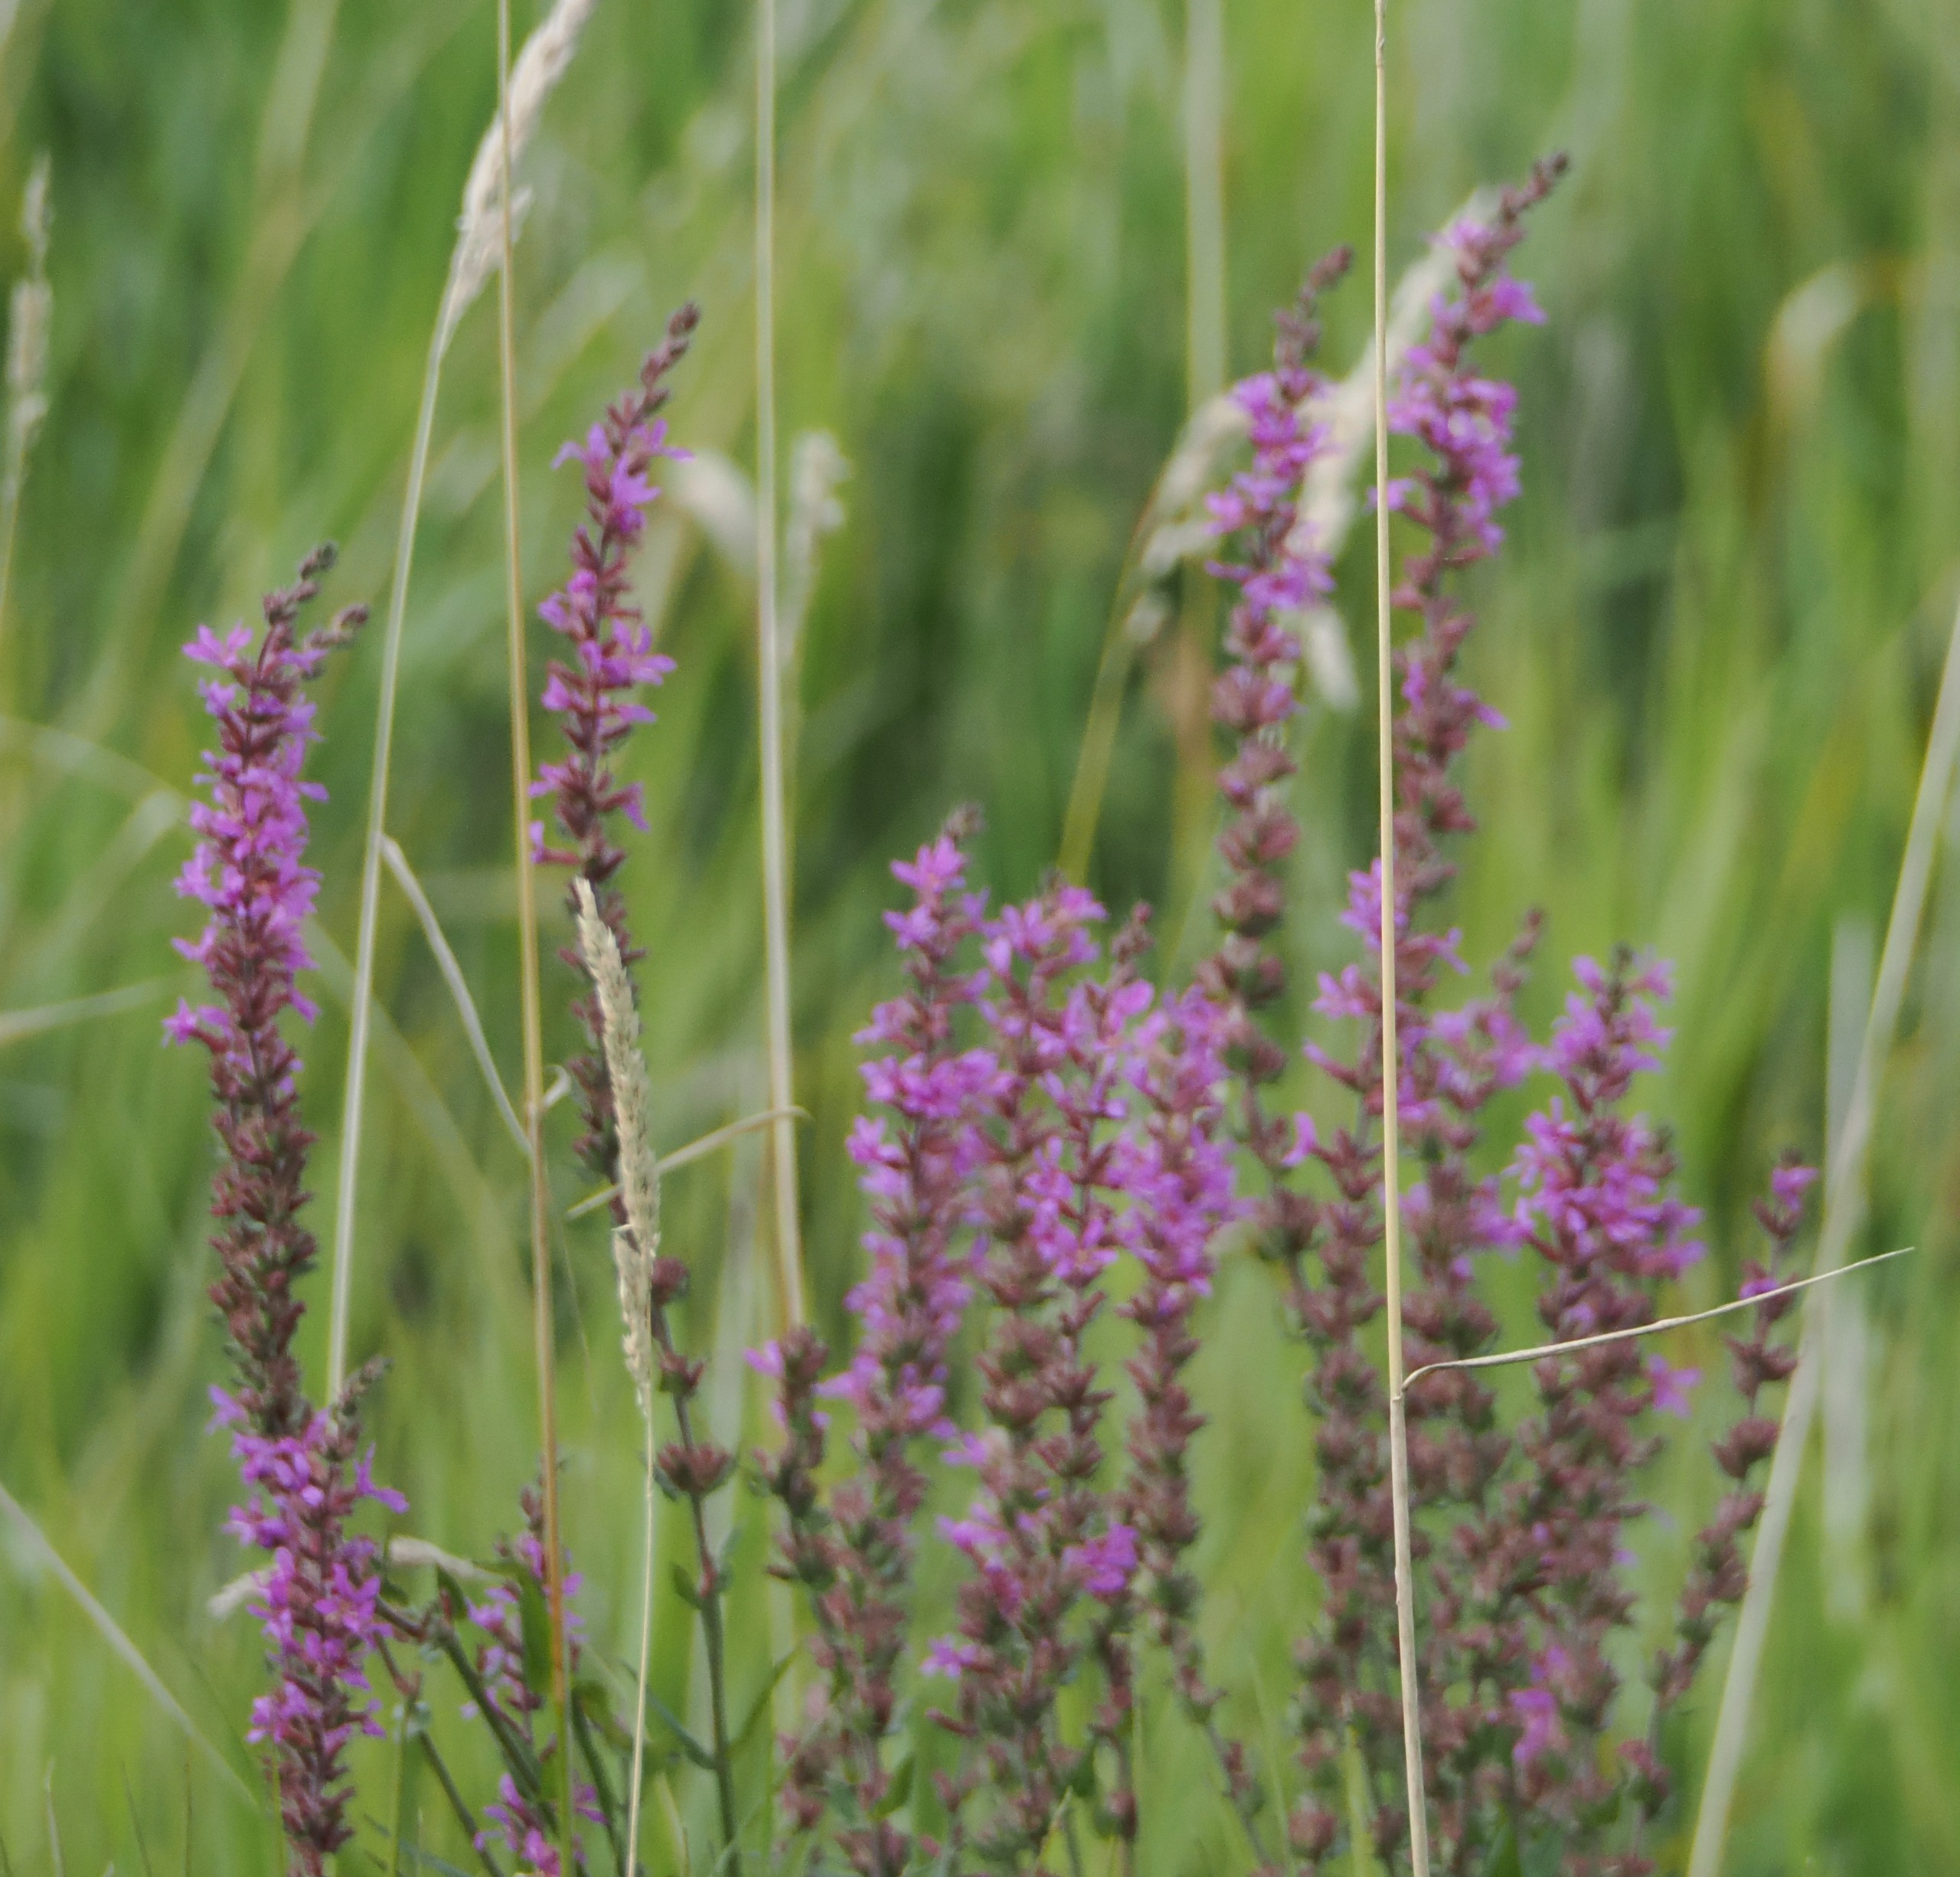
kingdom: Plantae
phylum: Tracheophyta
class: Magnoliopsida
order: Myrtales
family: Lythraceae
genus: Lythrum
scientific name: Lythrum salicaria
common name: Kattehale
